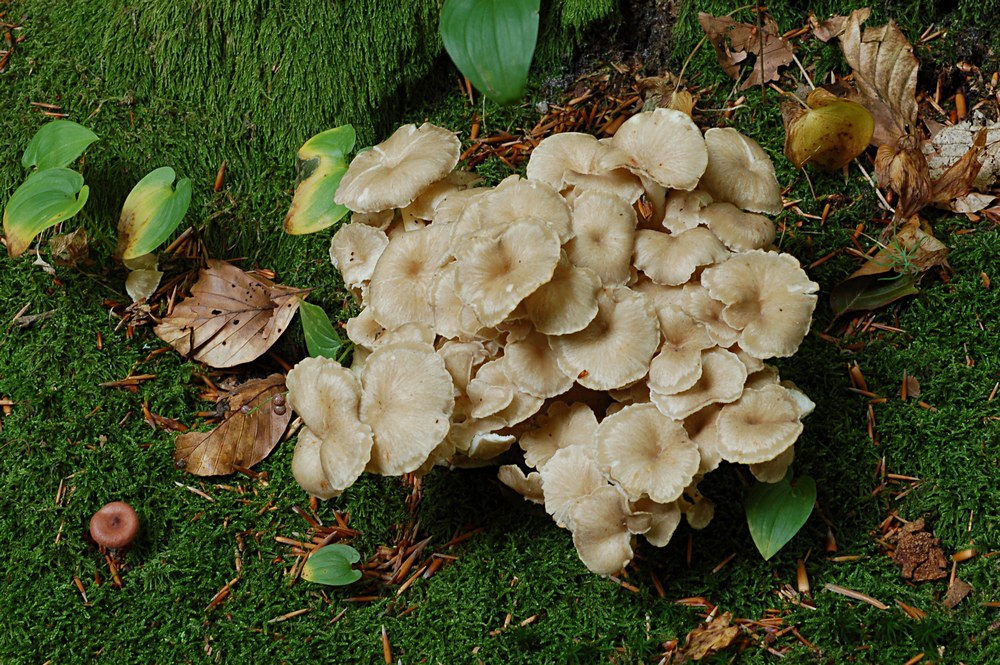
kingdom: Fungi
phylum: Basidiomycota
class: Agaricomycetes
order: Polyporales
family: Polyporaceae
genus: Polyporus
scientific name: Polyporus umbellatus
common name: skærmformet stilkporesvamp
